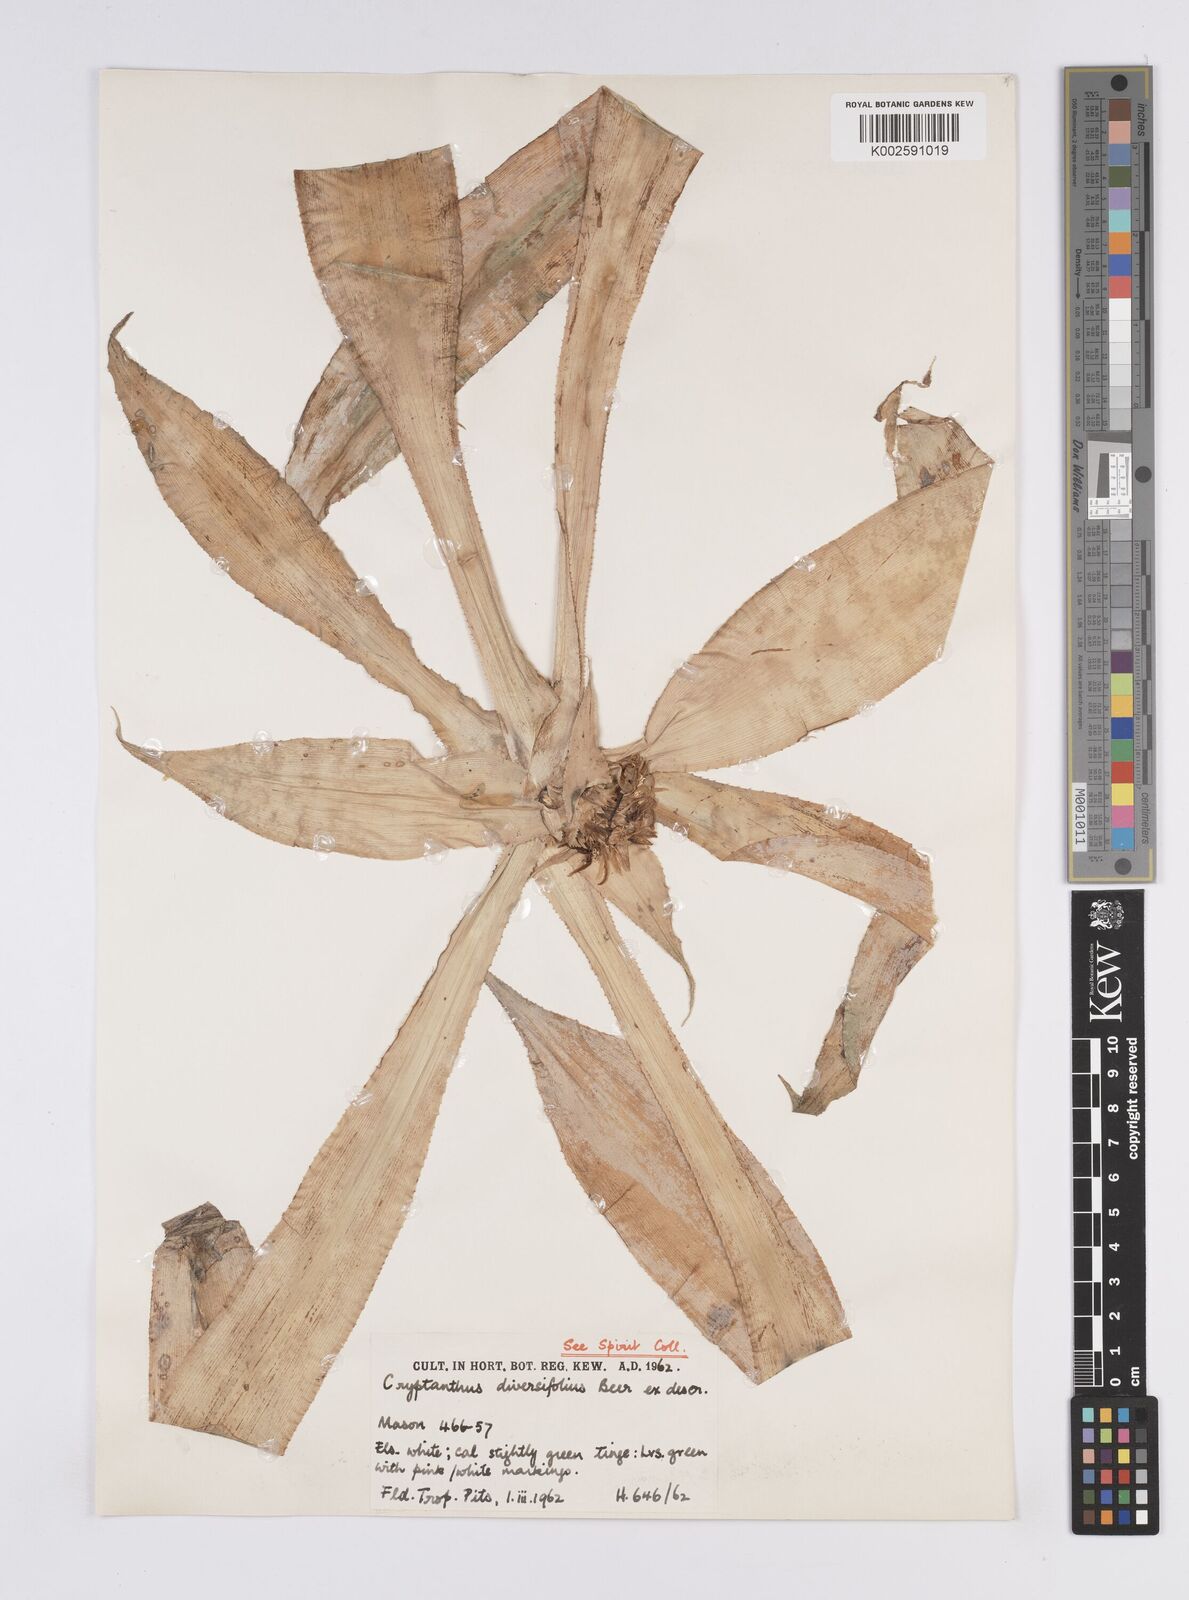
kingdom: Plantae
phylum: Tracheophyta
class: Liliopsida
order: Poales
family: Bromeliaceae
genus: Cryptanthus
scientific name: Cryptanthus bromelioides
